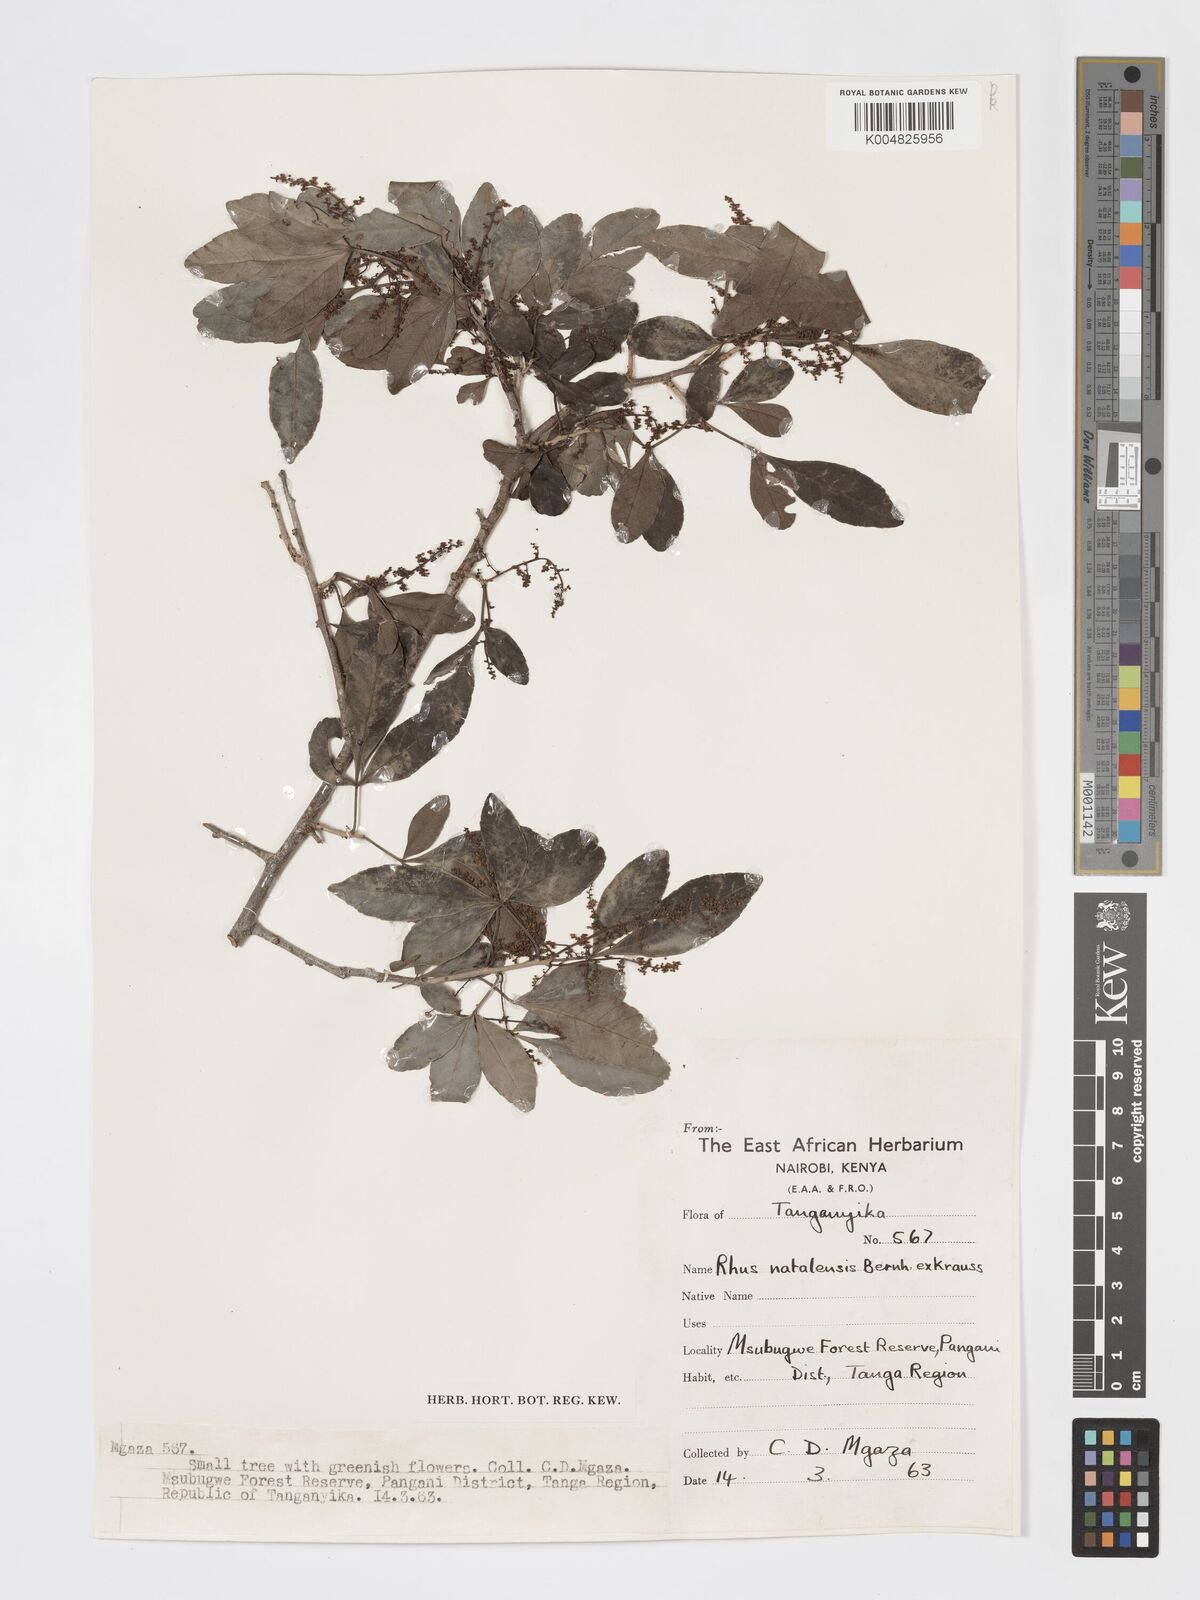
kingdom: Plantae
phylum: Tracheophyta
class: Magnoliopsida
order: Sapindales
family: Anacardiaceae
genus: Searsia
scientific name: Searsia natalensis
